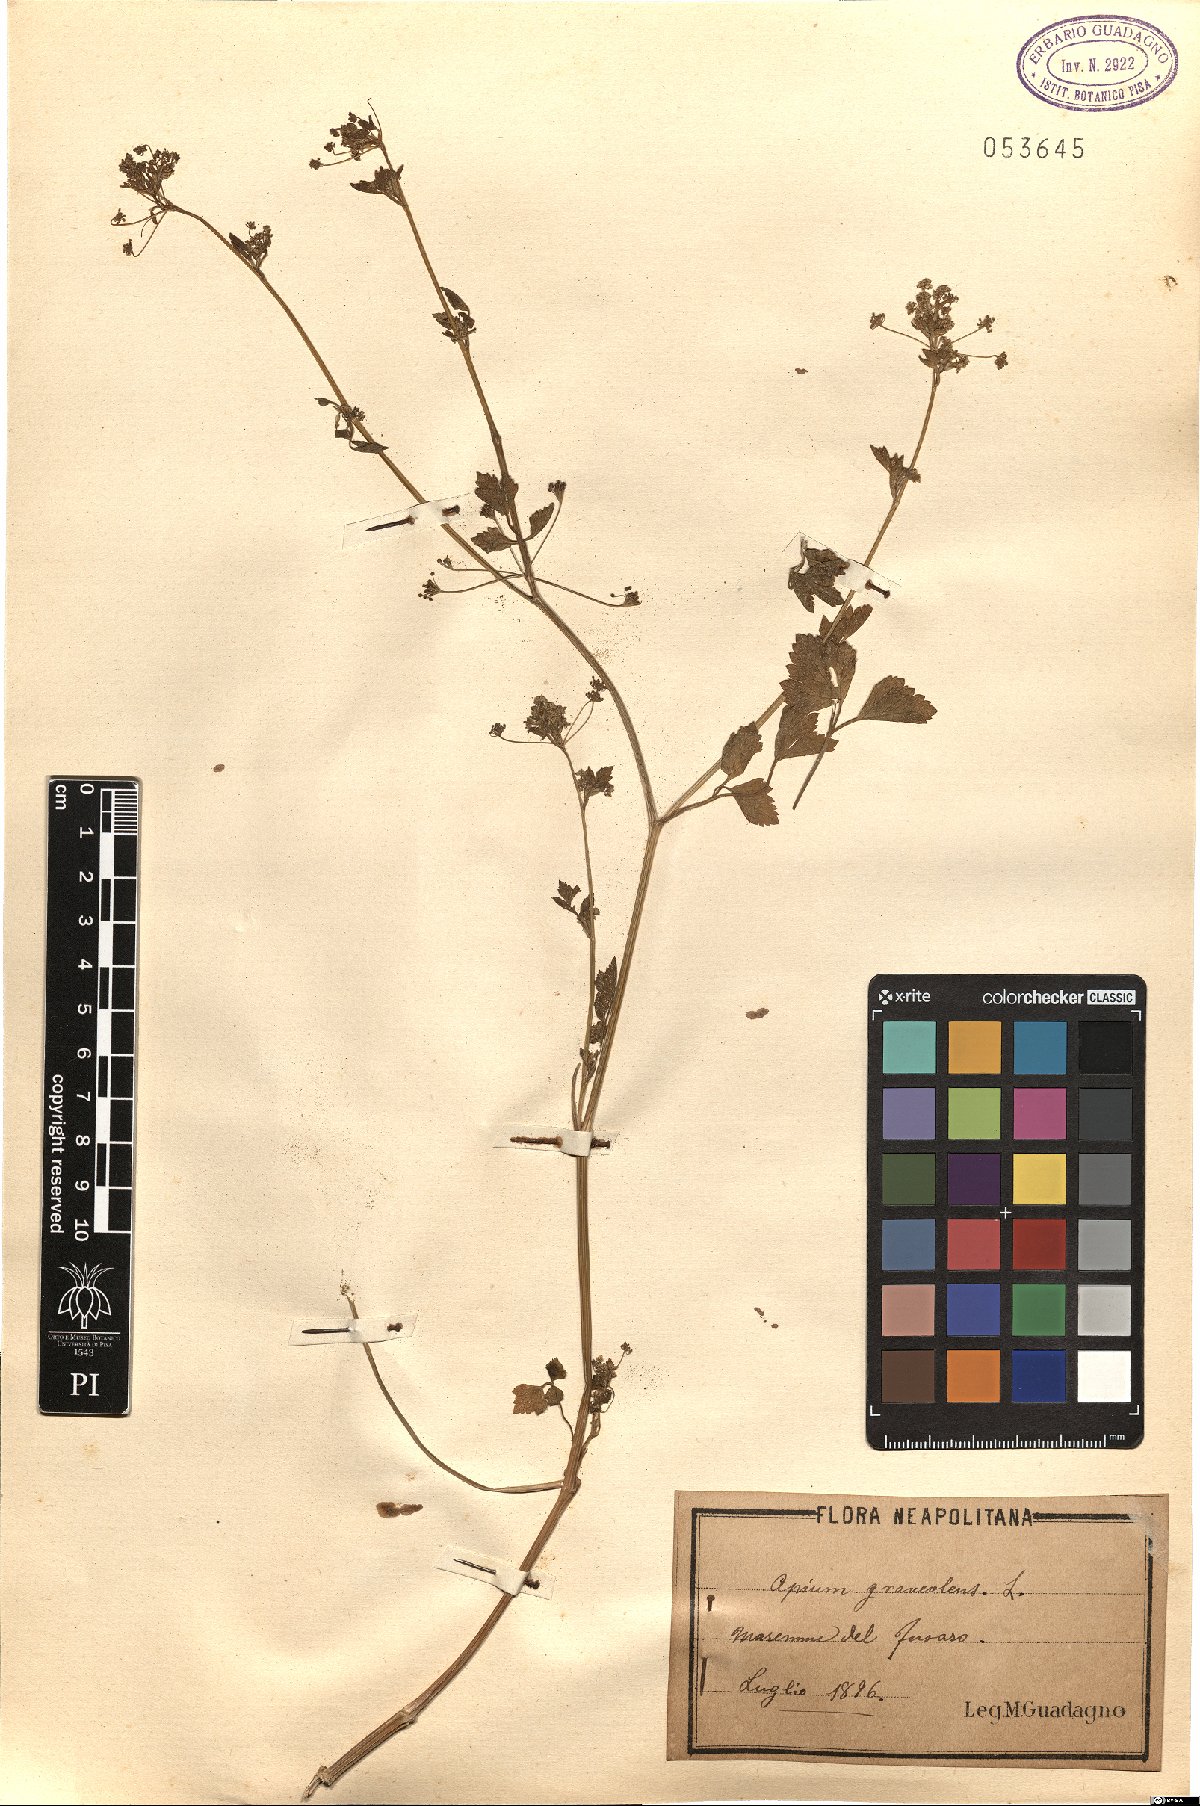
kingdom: Plantae
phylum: Tracheophyta
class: Magnoliopsida
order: Apiales
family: Apiaceae
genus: Apium
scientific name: Apium graveolens
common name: Wild celery
